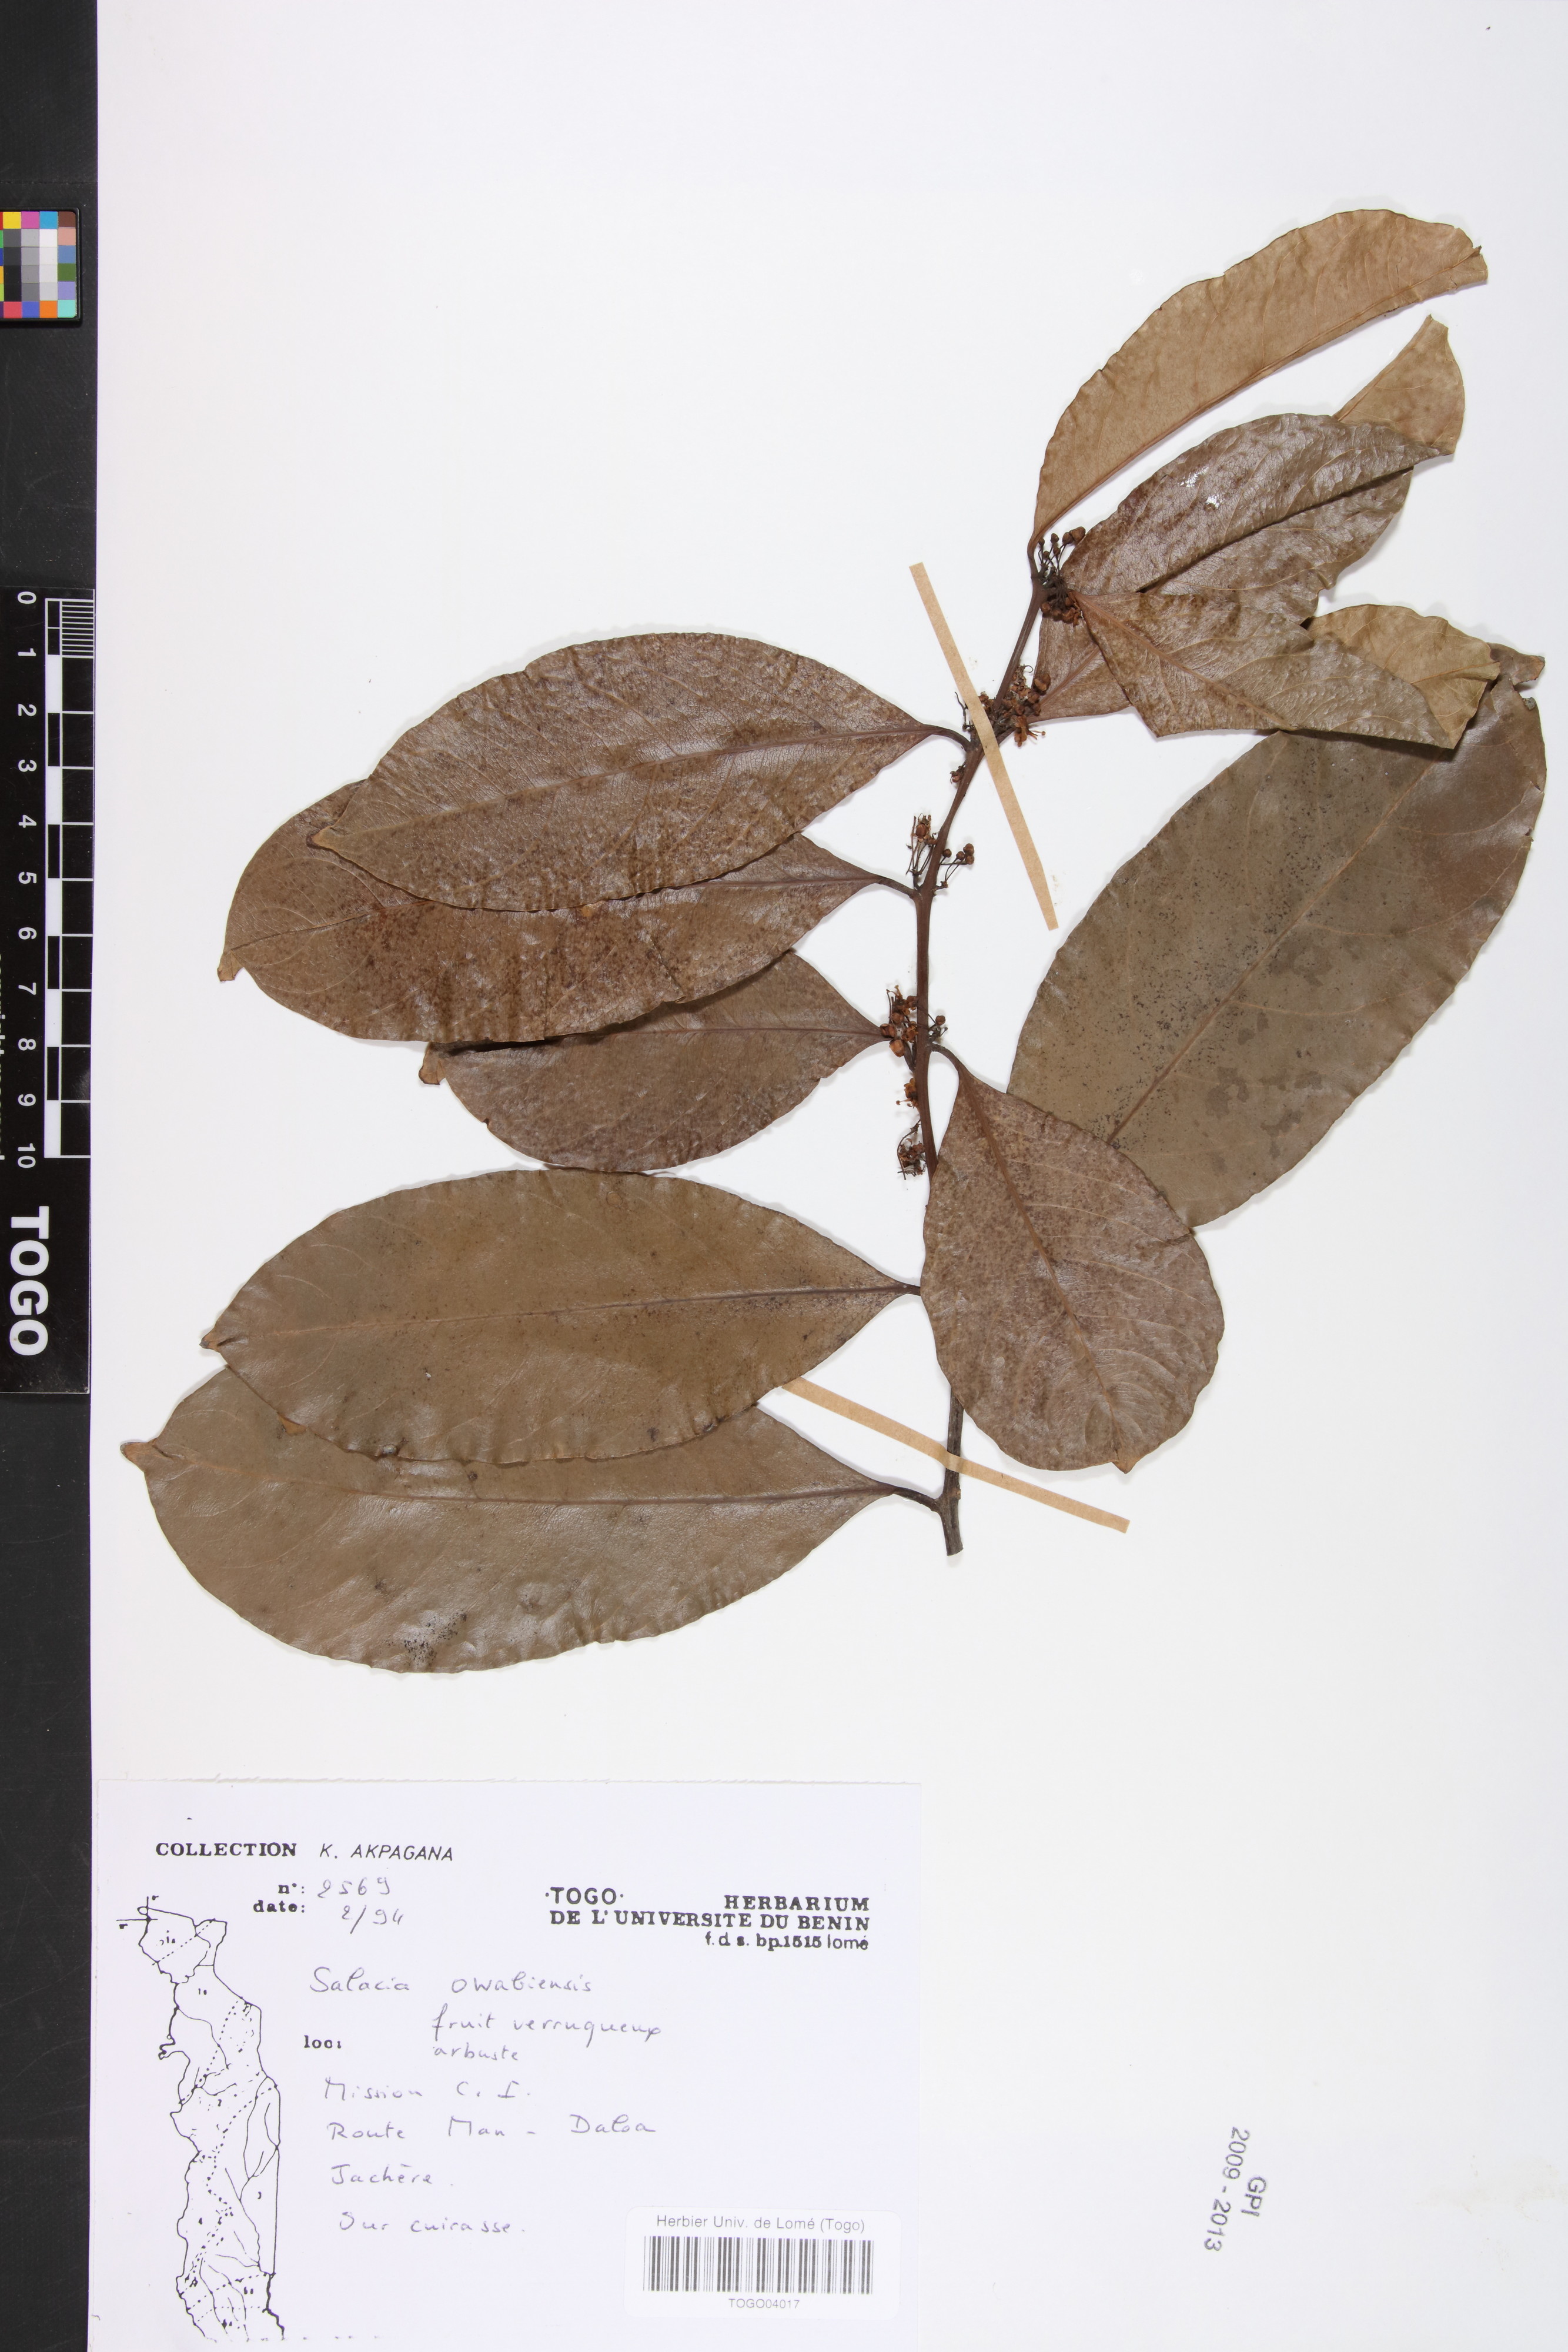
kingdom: Plantae
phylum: Tracheophyta
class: Magnoliopsida
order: Celastrales
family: Celastraceae
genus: Salacia
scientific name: Salacia owabiensis
